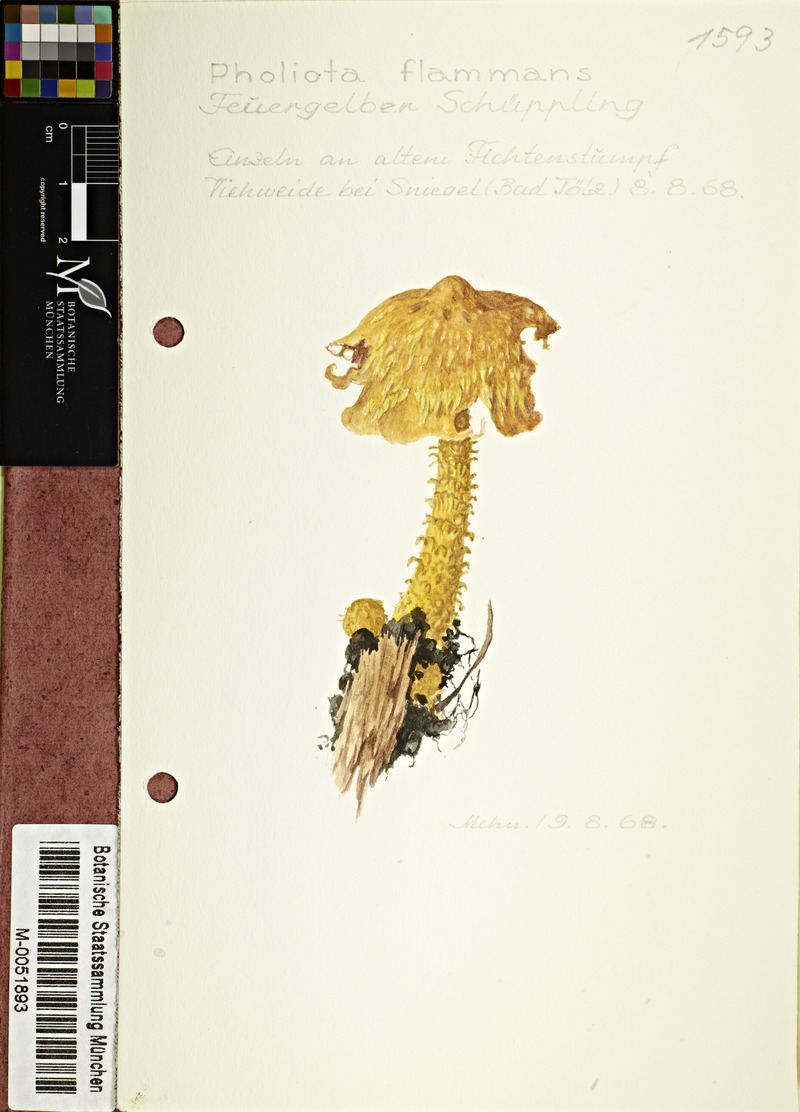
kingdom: Fungi
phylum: Basidiomycota
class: Agaricomycetes
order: Agaricales
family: Strophariaceae
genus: Pholiota
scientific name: Pholiota flammans
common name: Flaming scalycap
